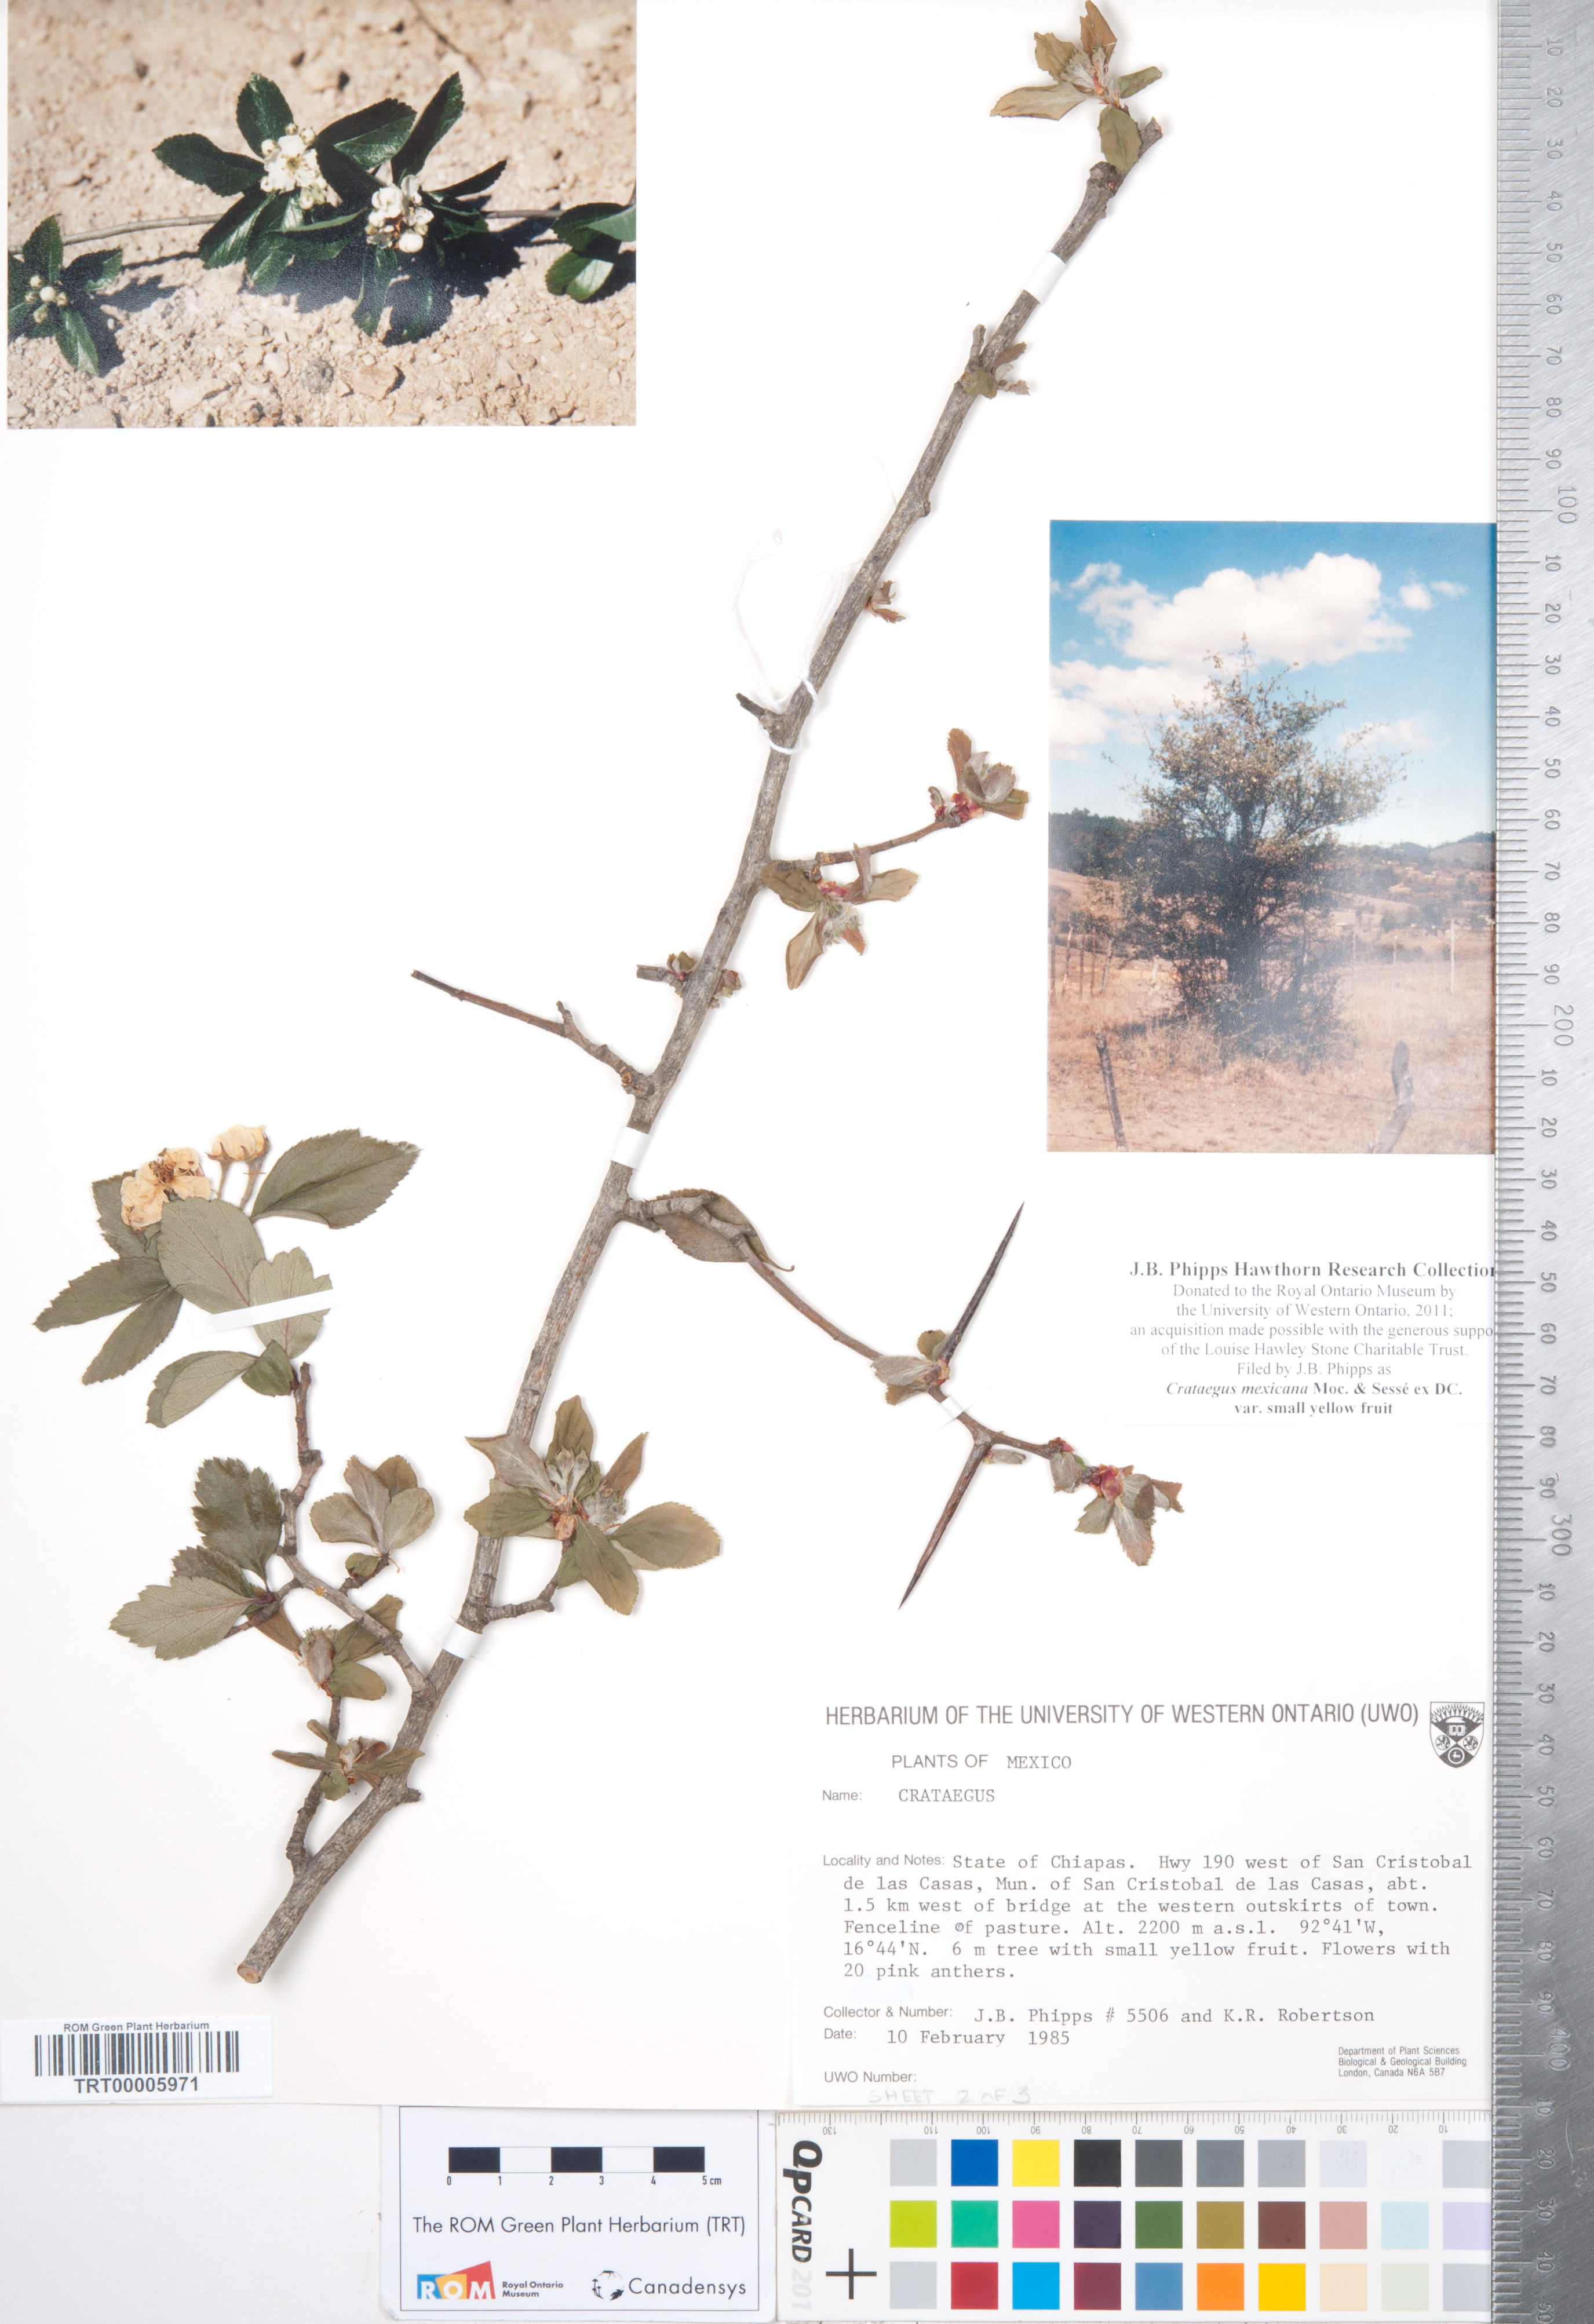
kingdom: Plantae
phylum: Tracheophyta
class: Magnoliopsida
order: Rosales
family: Rosaceae
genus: Crataegus
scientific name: Crataegus mexicana
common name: Mexican hawthorn
